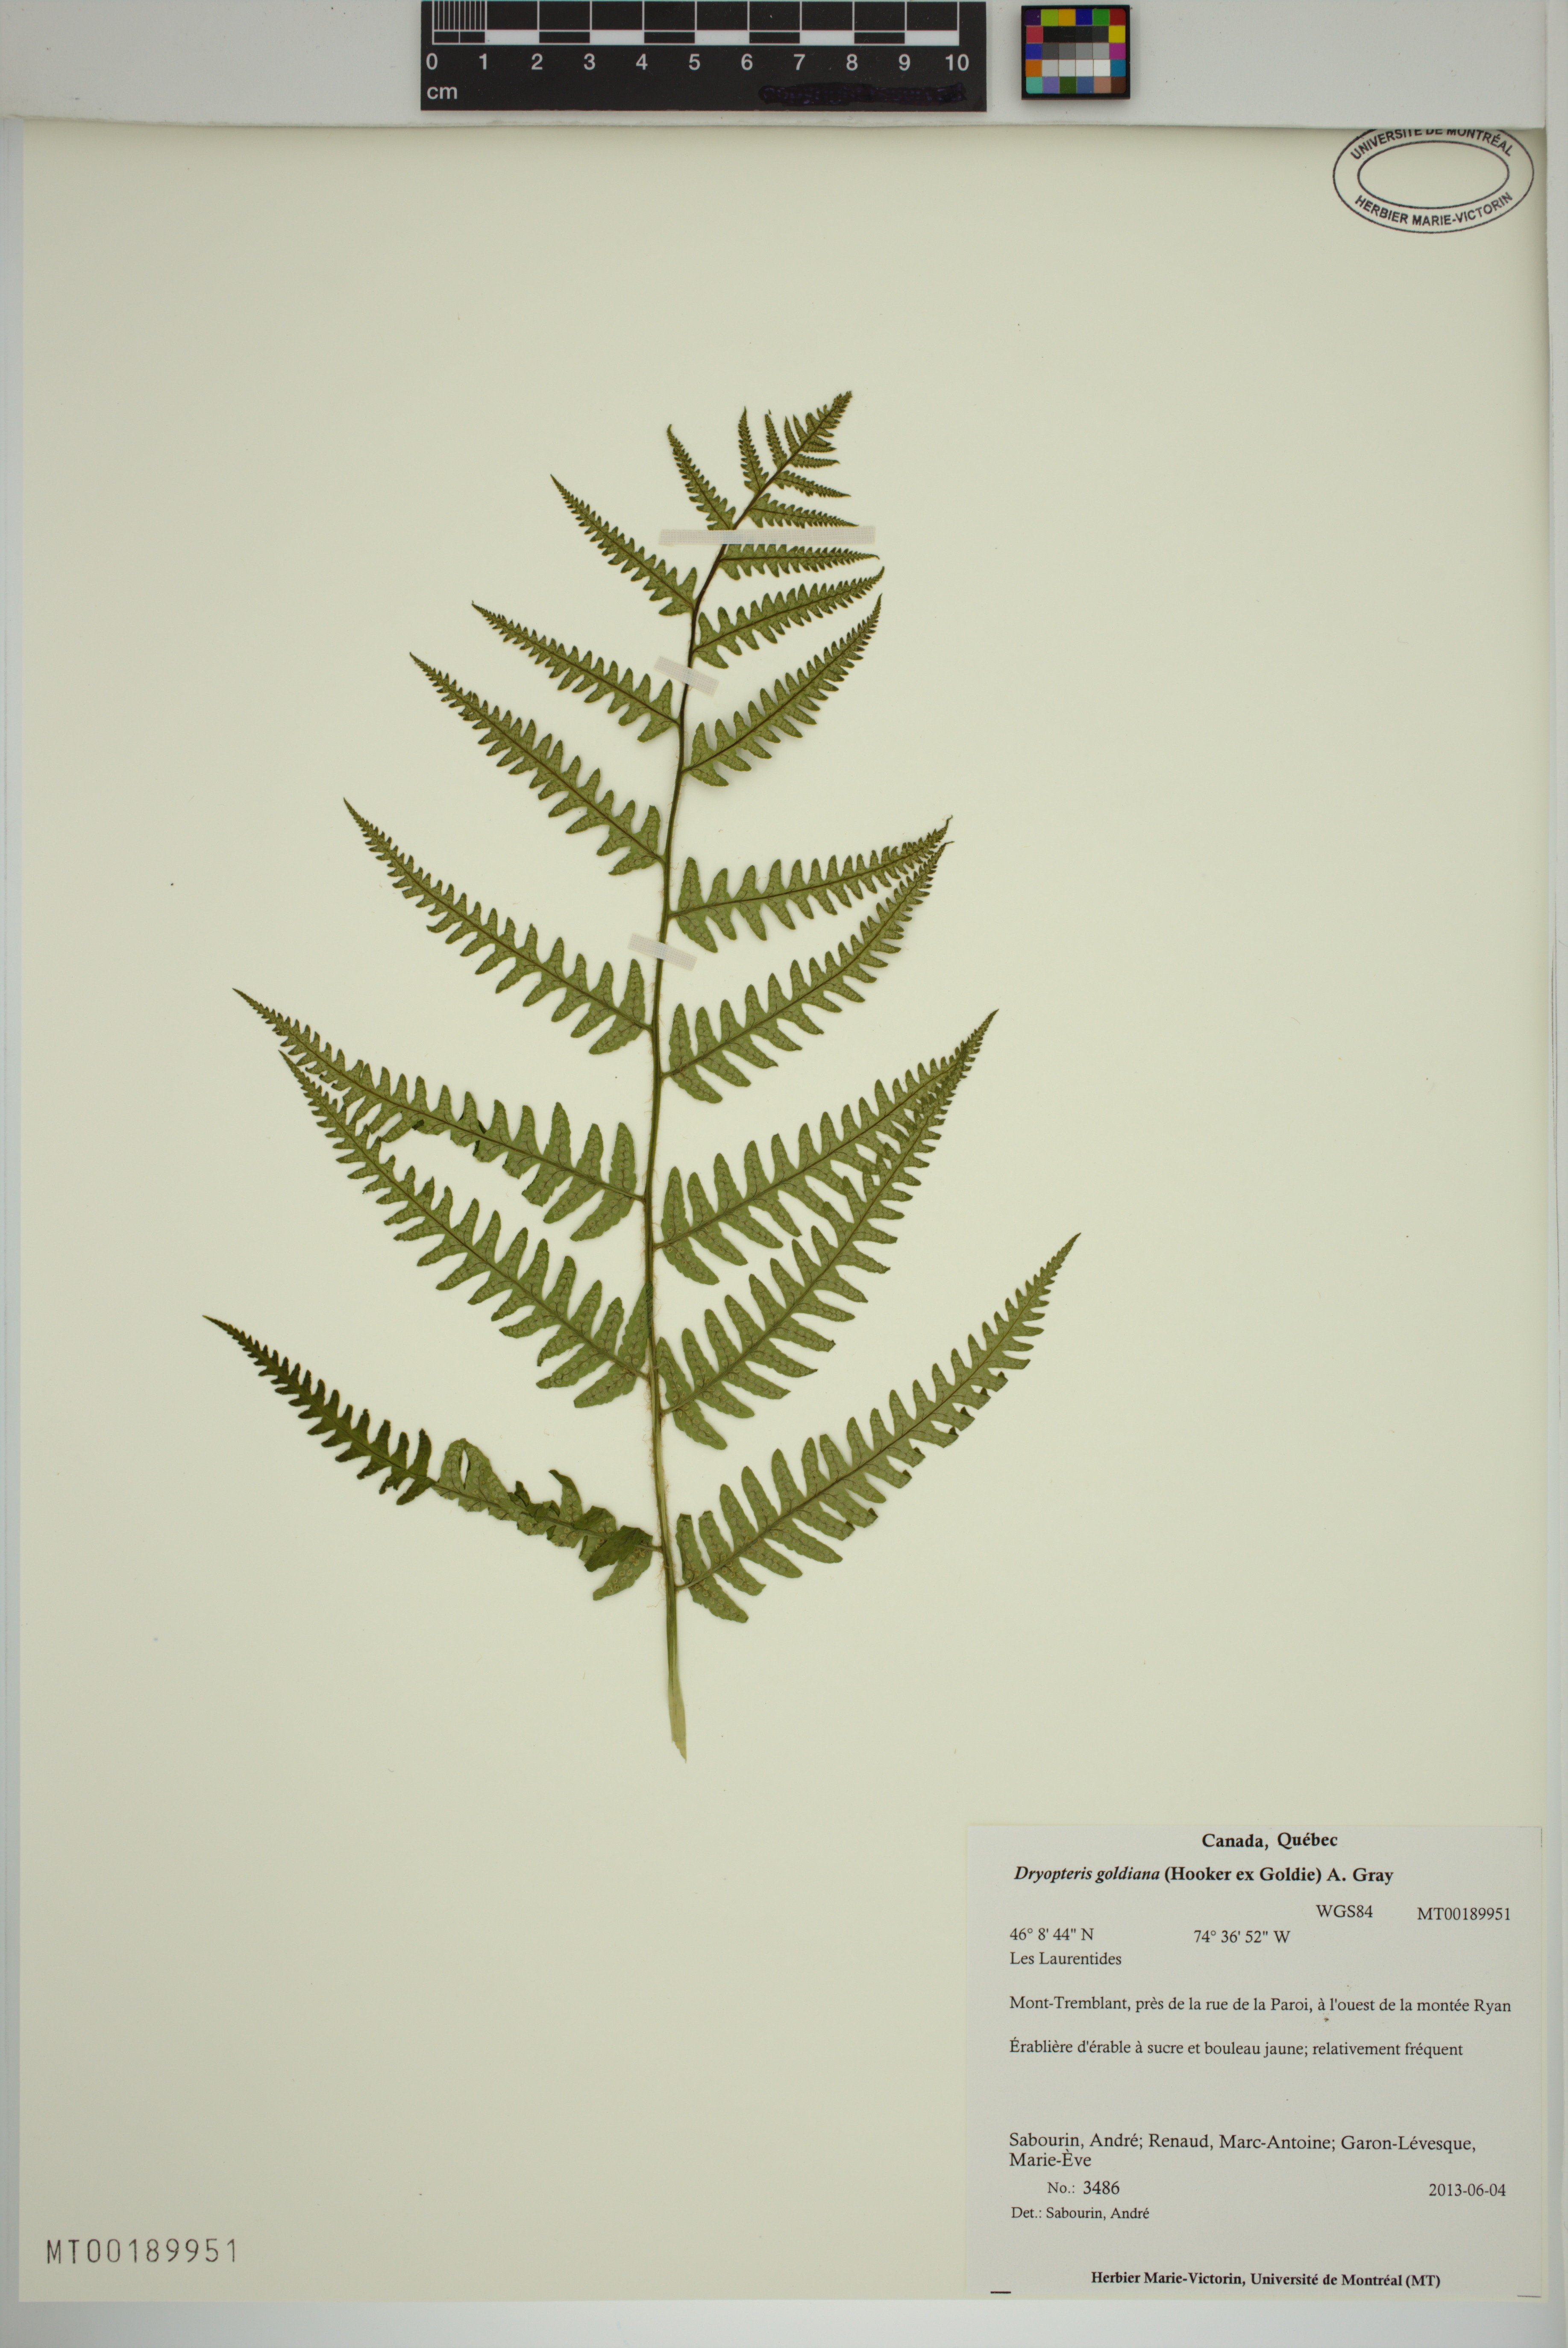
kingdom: Plantae
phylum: Tracheophyta
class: Polypodiopsida
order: Polypodiales
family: Dryopteridaceae
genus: Dryopteris
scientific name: Dryopteris goldieana
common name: Goldie's fern
